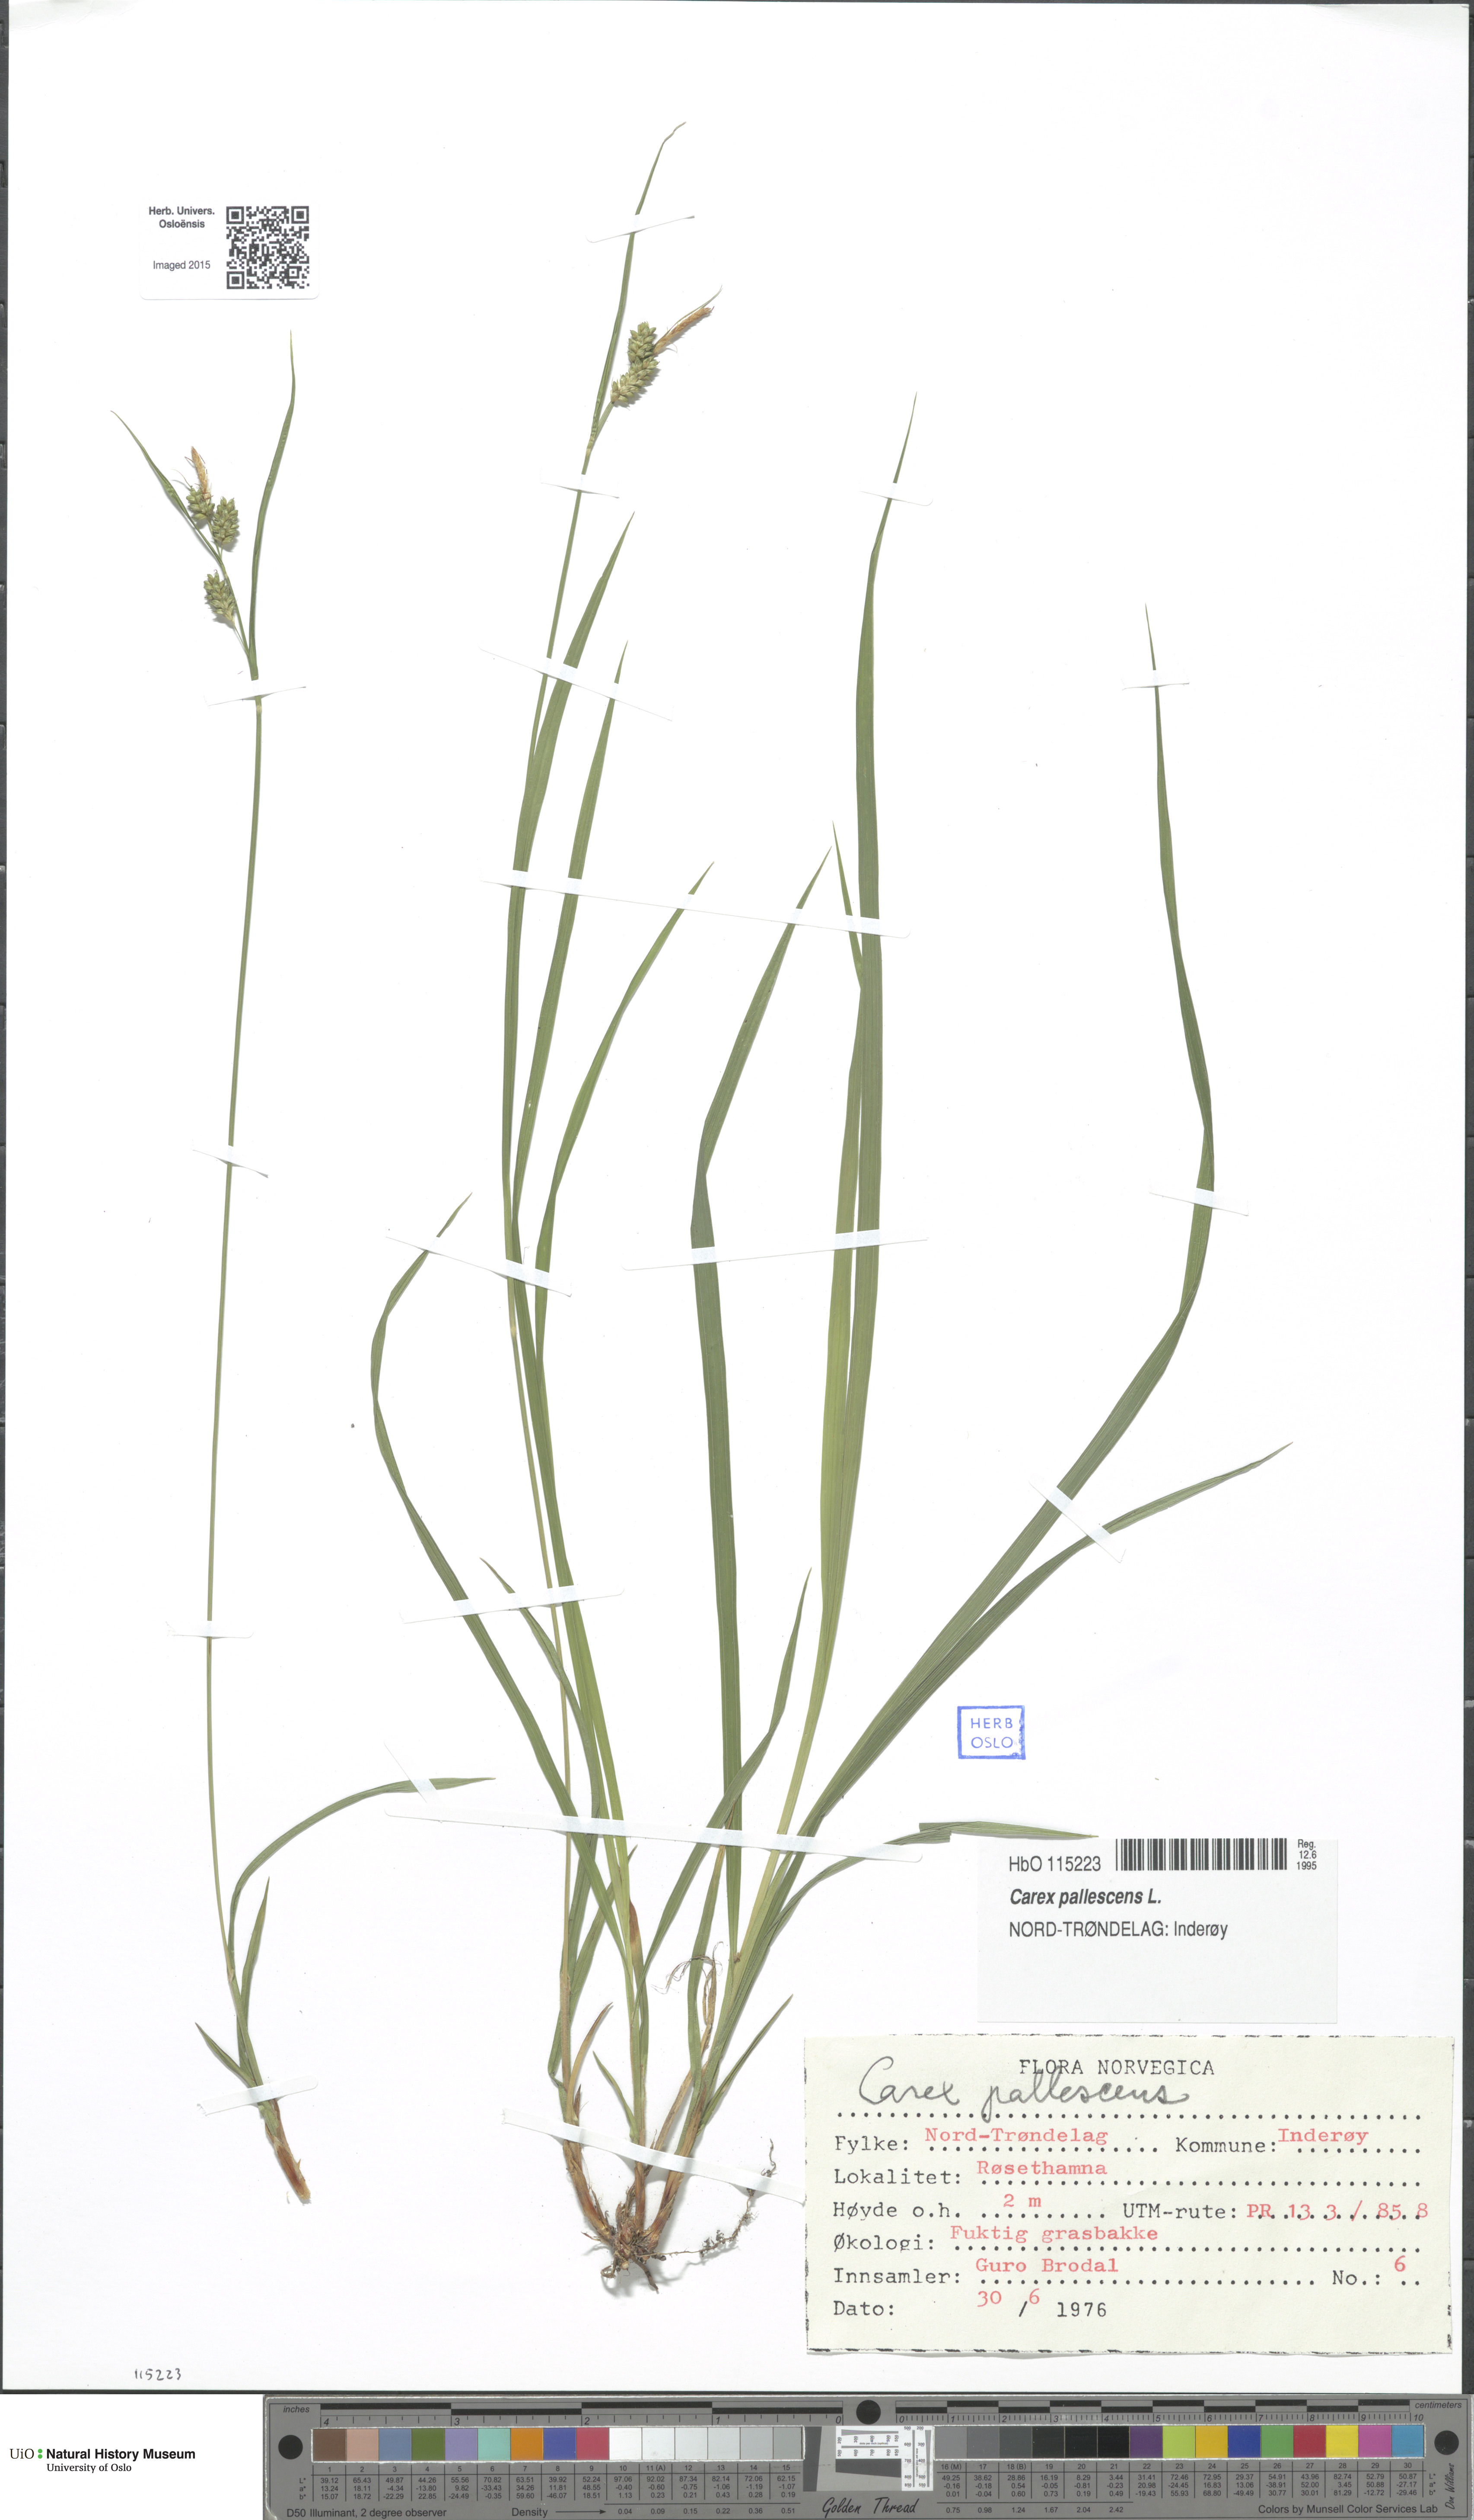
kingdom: Plantae
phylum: Tracheophyta
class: Liliopsida
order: Poales
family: Cyperaceae
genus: Carex
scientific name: Carex pallescens
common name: Pale sedge
